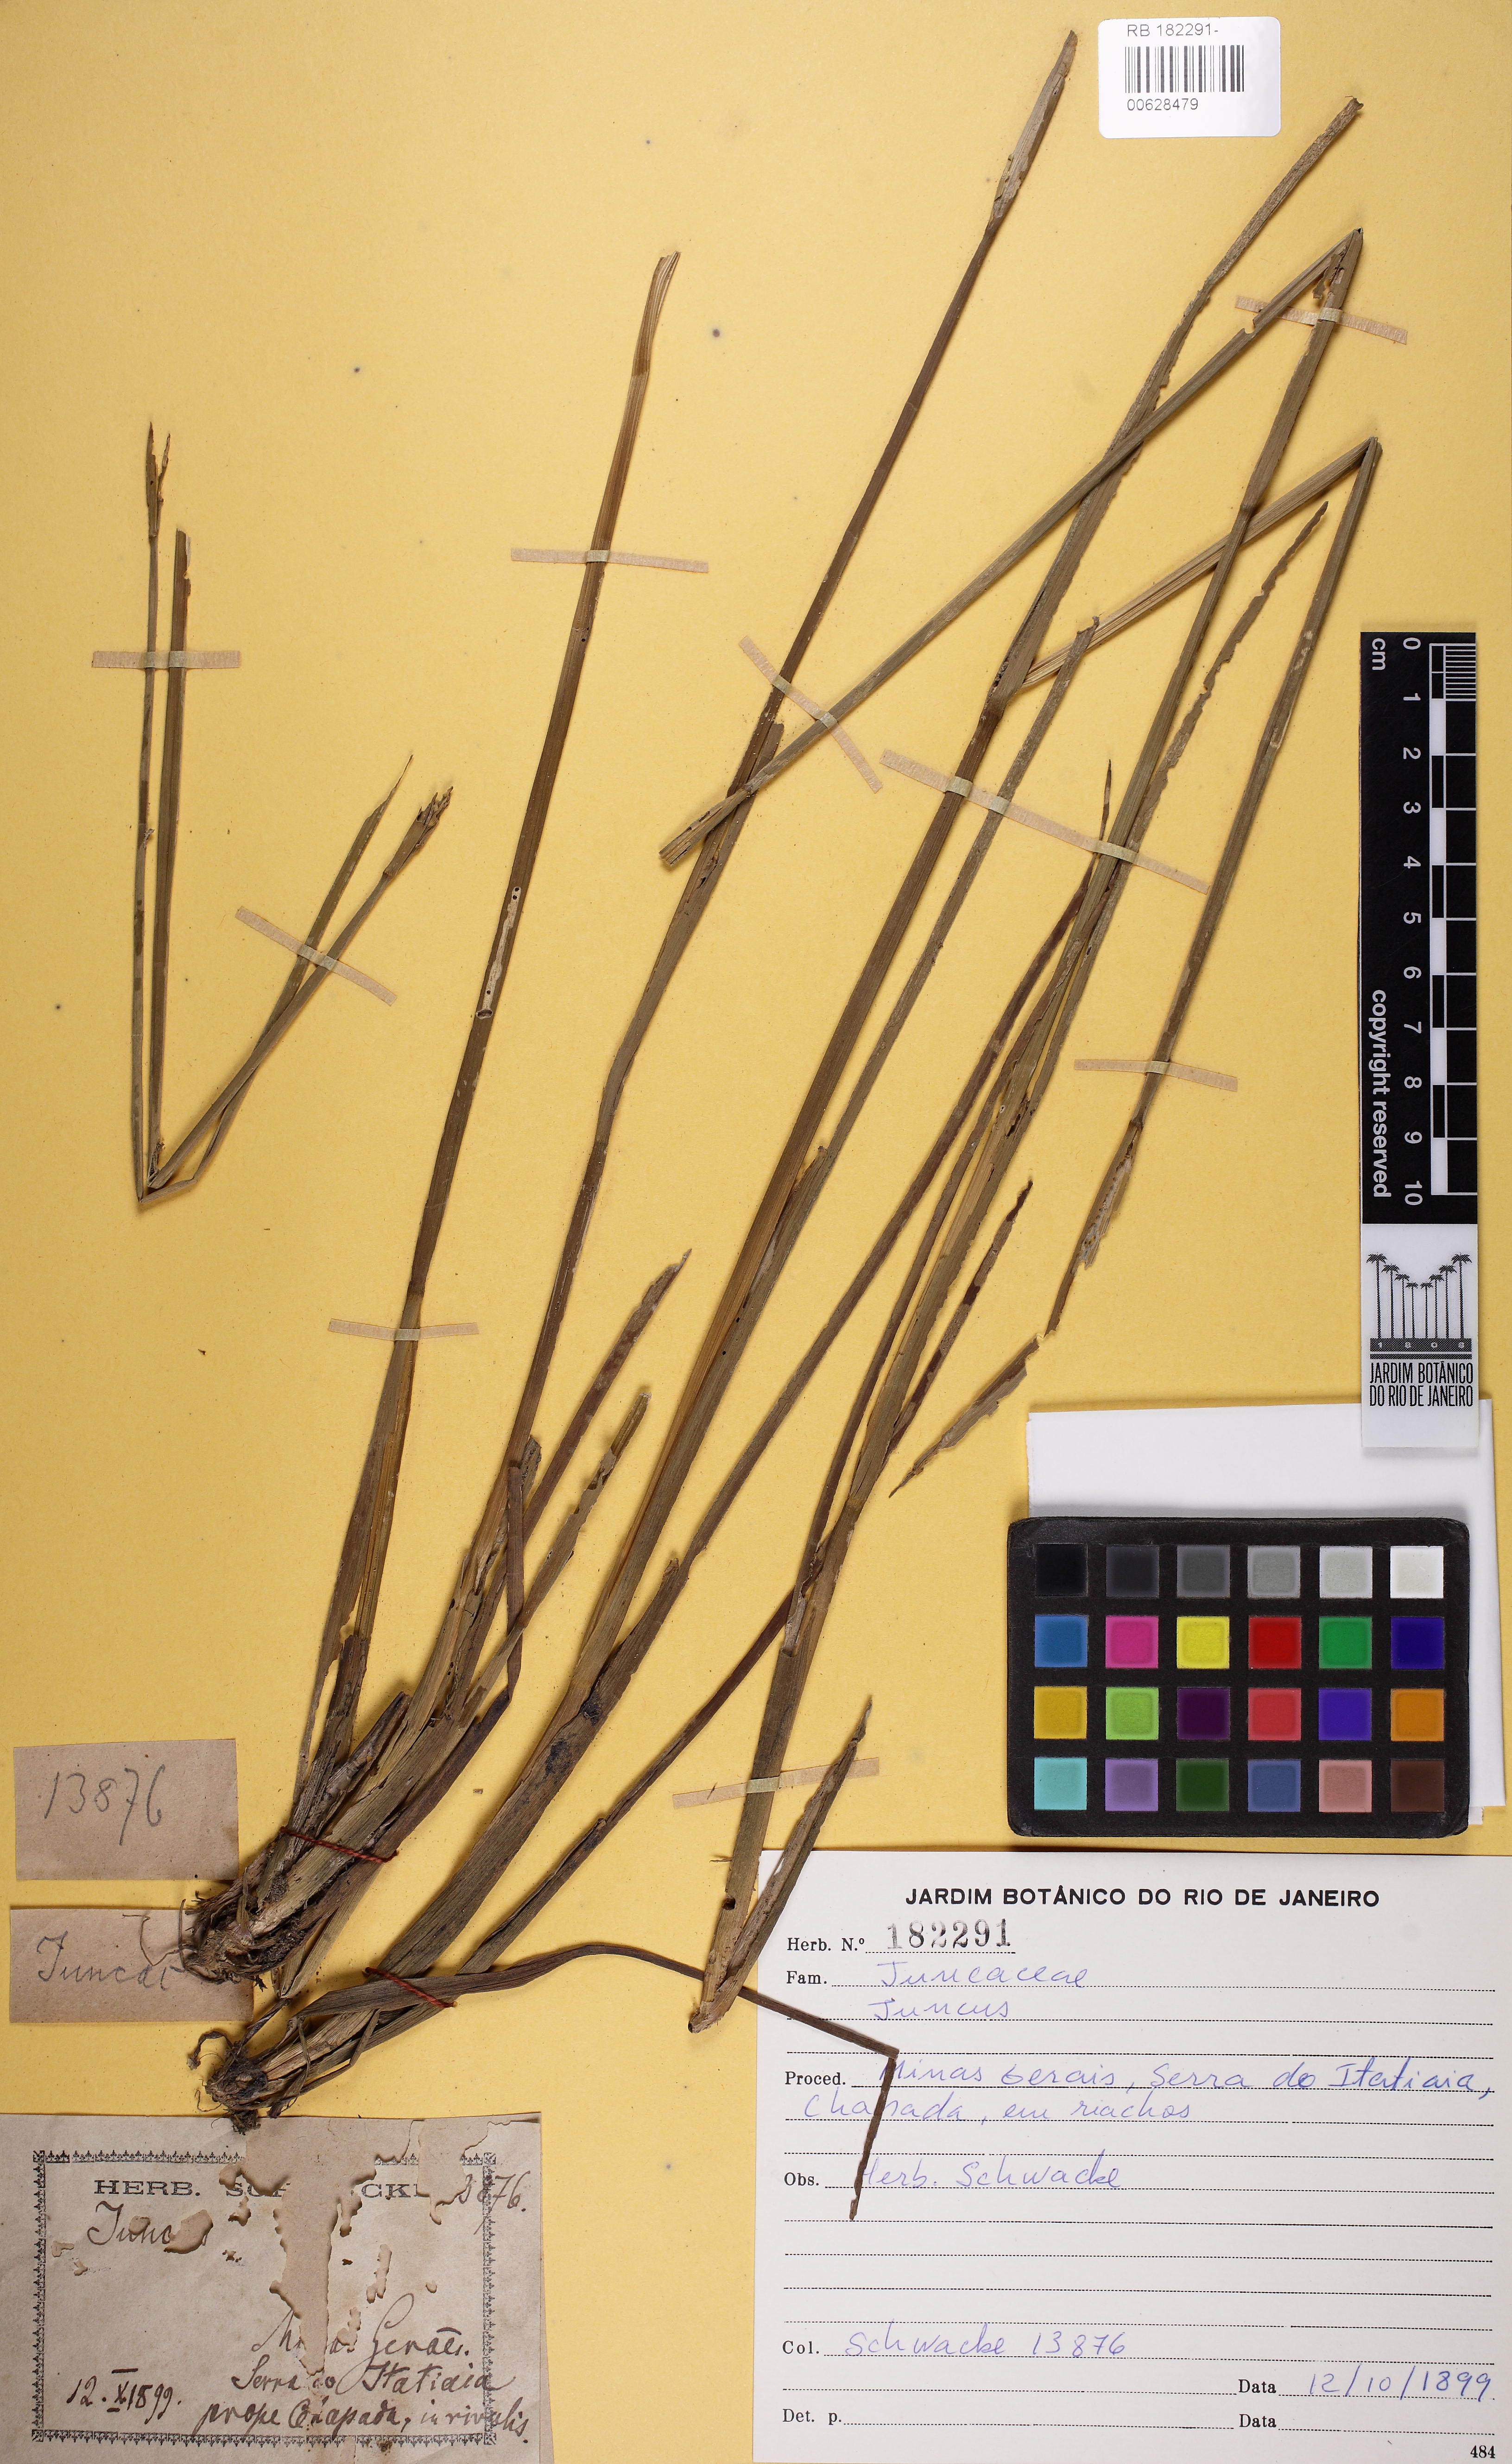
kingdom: Plantae
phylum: Tracheophyta
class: Liliopsida
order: Poales
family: Juncaceae
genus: Juncus
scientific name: Juncus
